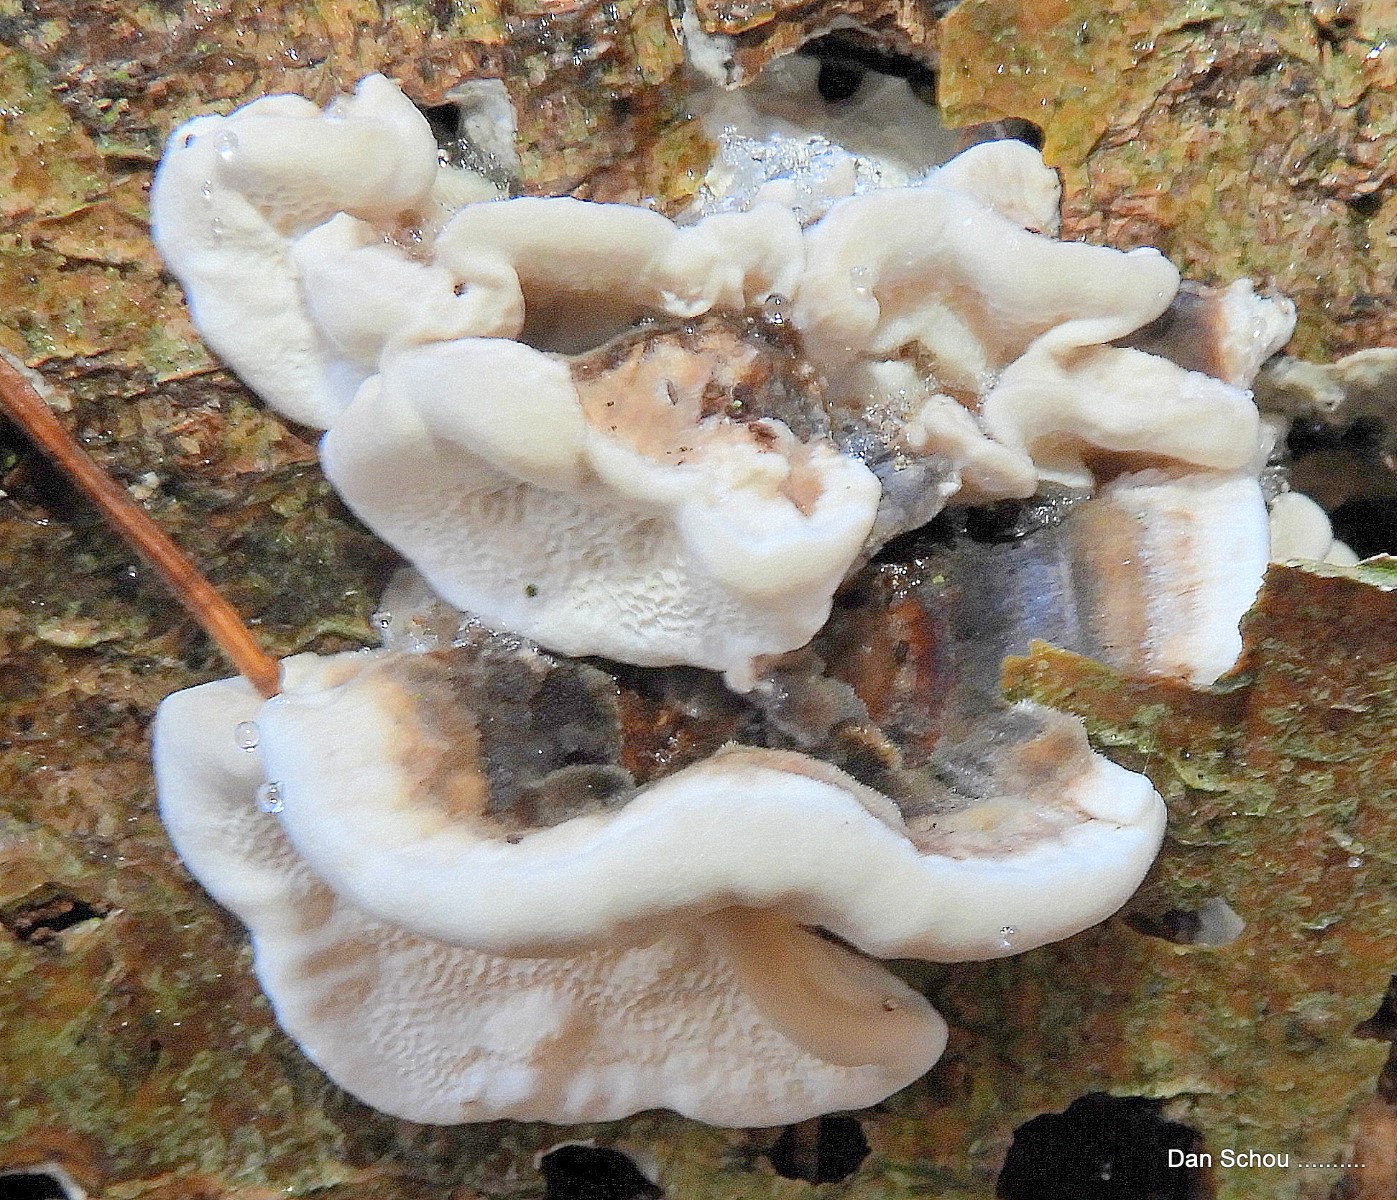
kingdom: Fungi
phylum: Basidiomycota
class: Agaricomycetes
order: Polyporales
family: Polyporaceae
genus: Trametes
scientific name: Trametes versicolor
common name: broget læderporesvamp
